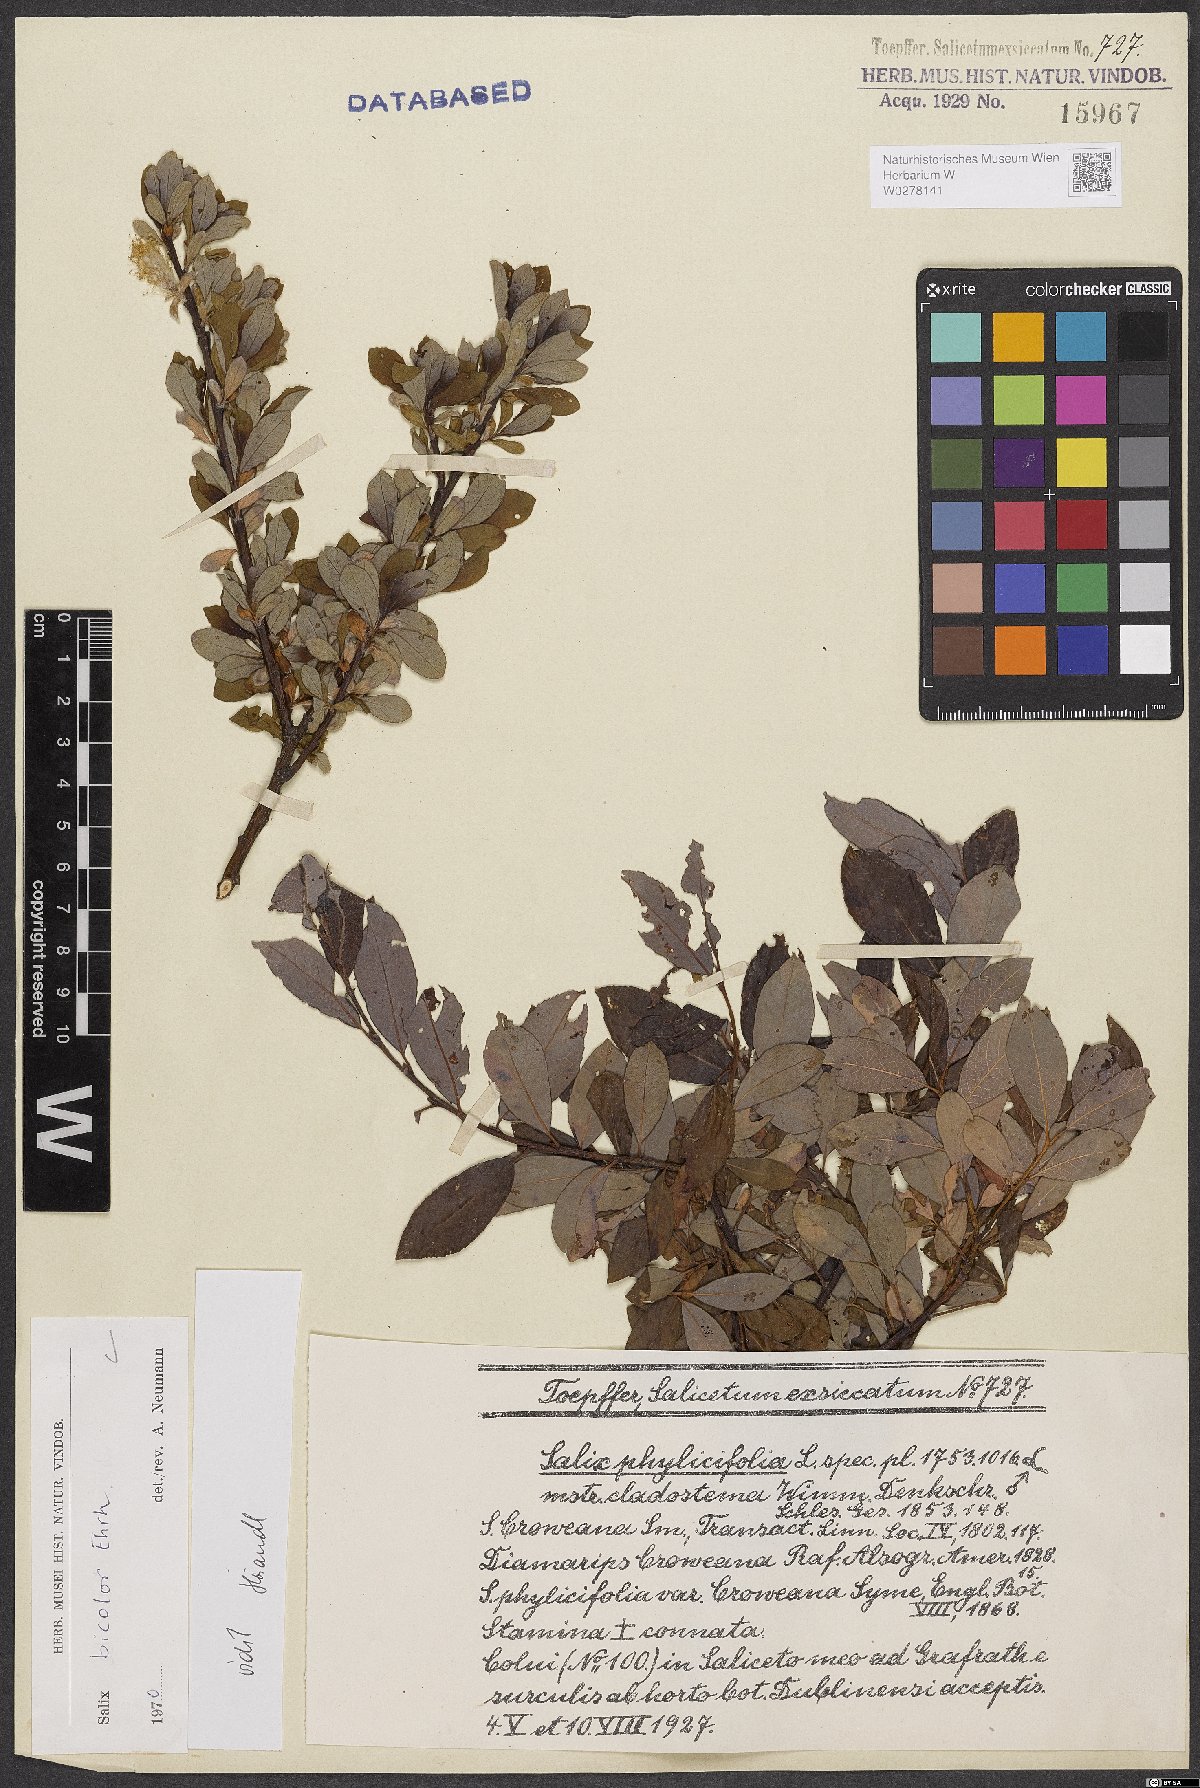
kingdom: Plantae
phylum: Tracheophyta
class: Magnoliopsida
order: Malpighiales
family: Salicaceae
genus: Salix
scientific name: Salix bicolor
